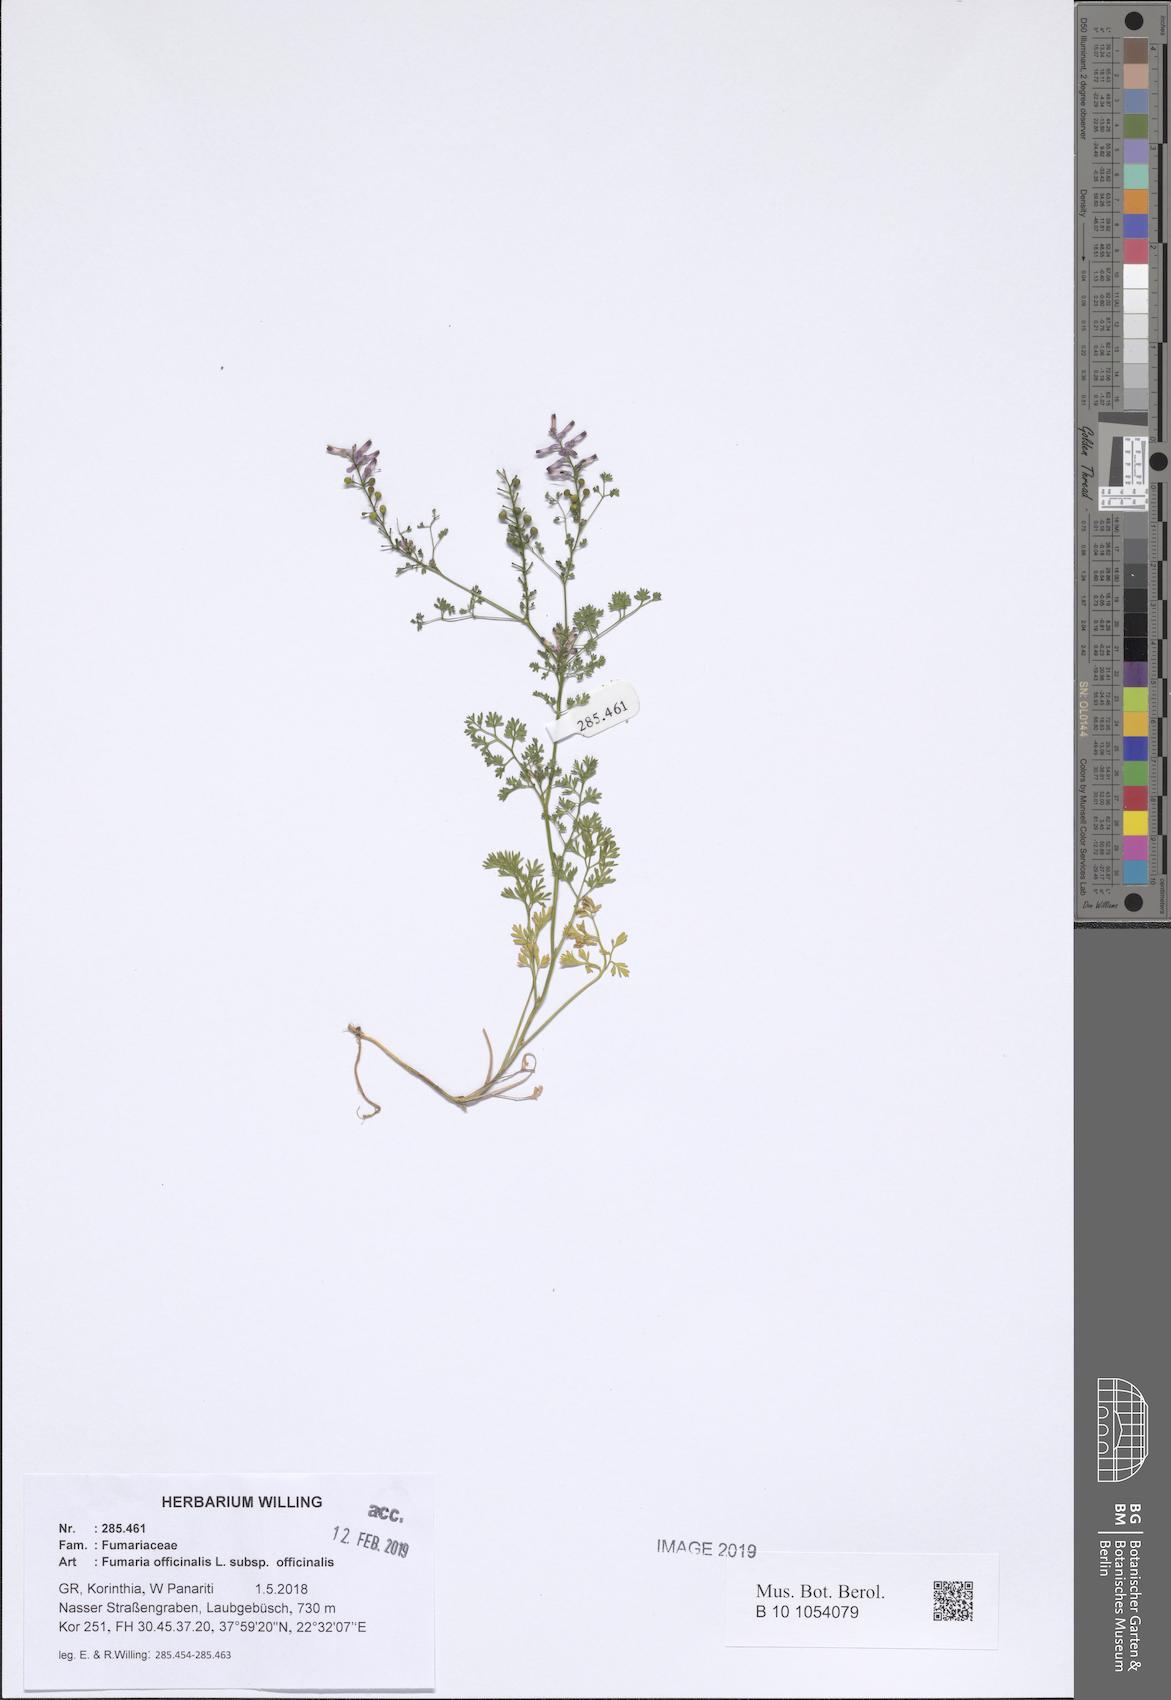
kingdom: Plantae
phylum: Tracheophyta
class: Magnoliopsida
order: Ranunculales
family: Papaveraceae
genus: Fumaria
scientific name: Fumaria officinalis
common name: Common fumitory
